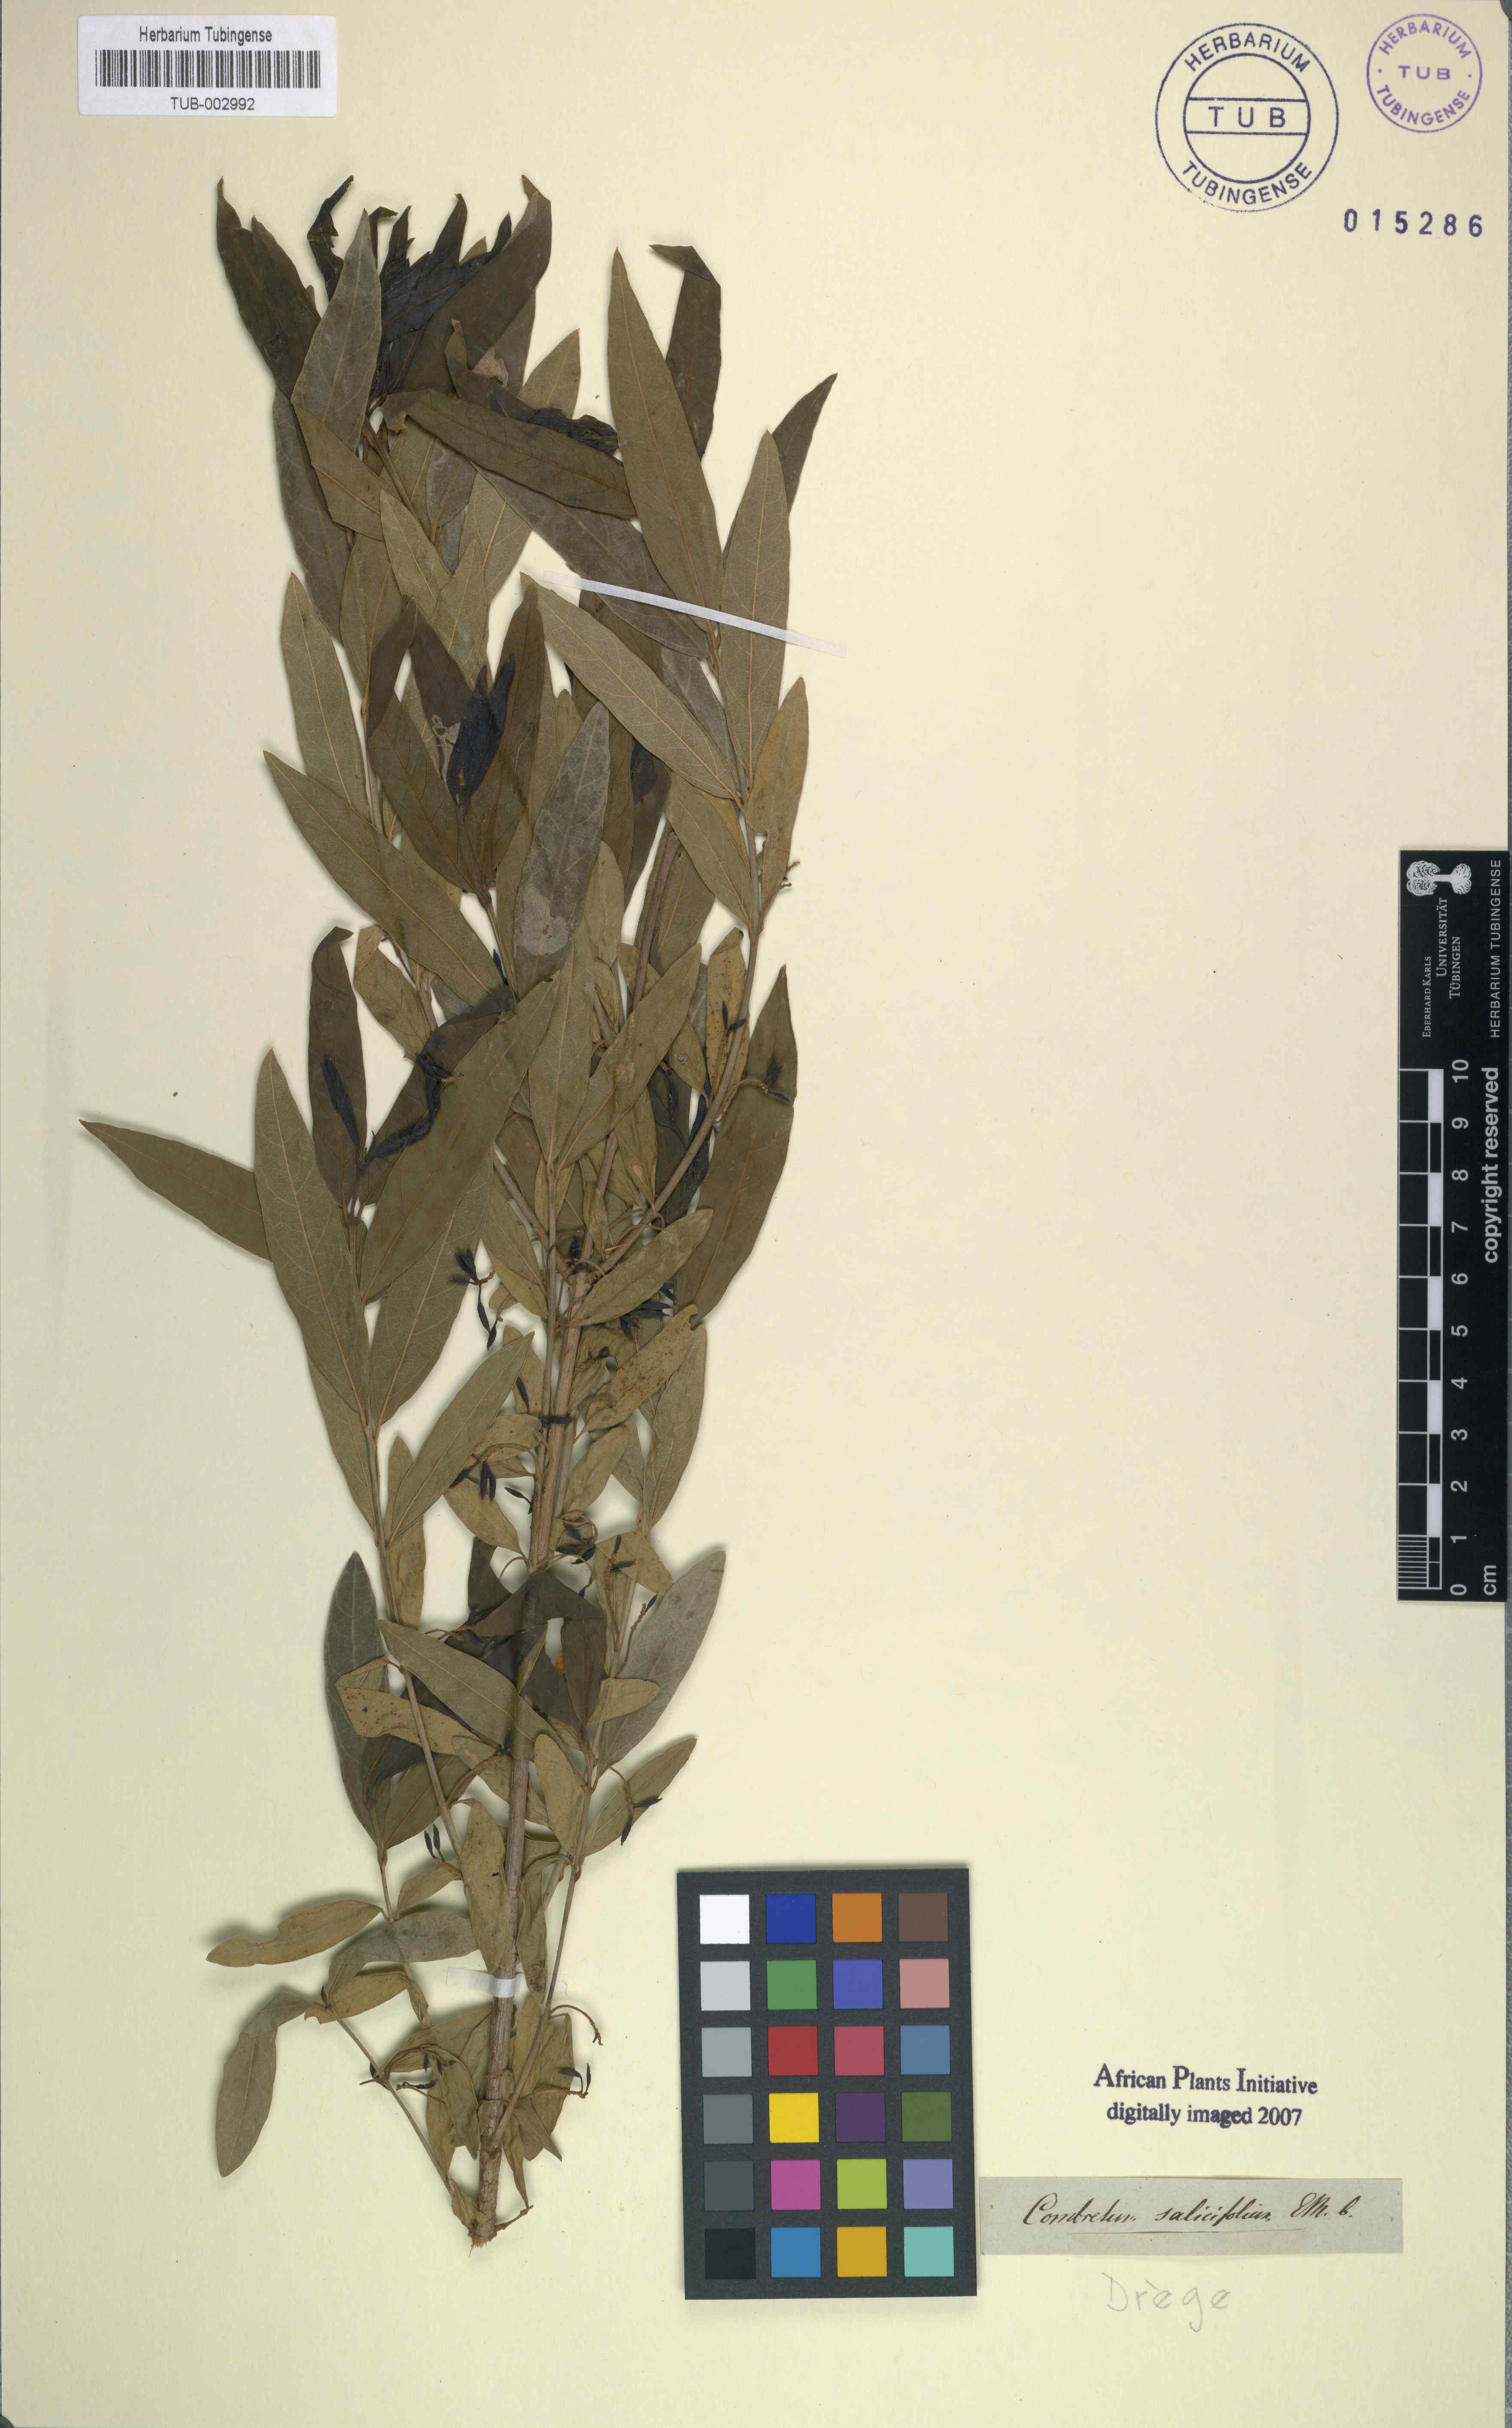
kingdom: Plantae
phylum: Tracheophyta
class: Magnoliopsida
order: Myrtales
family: Combretaceae
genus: Combretum
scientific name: Combretum caffrum
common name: Cape bushwillow
